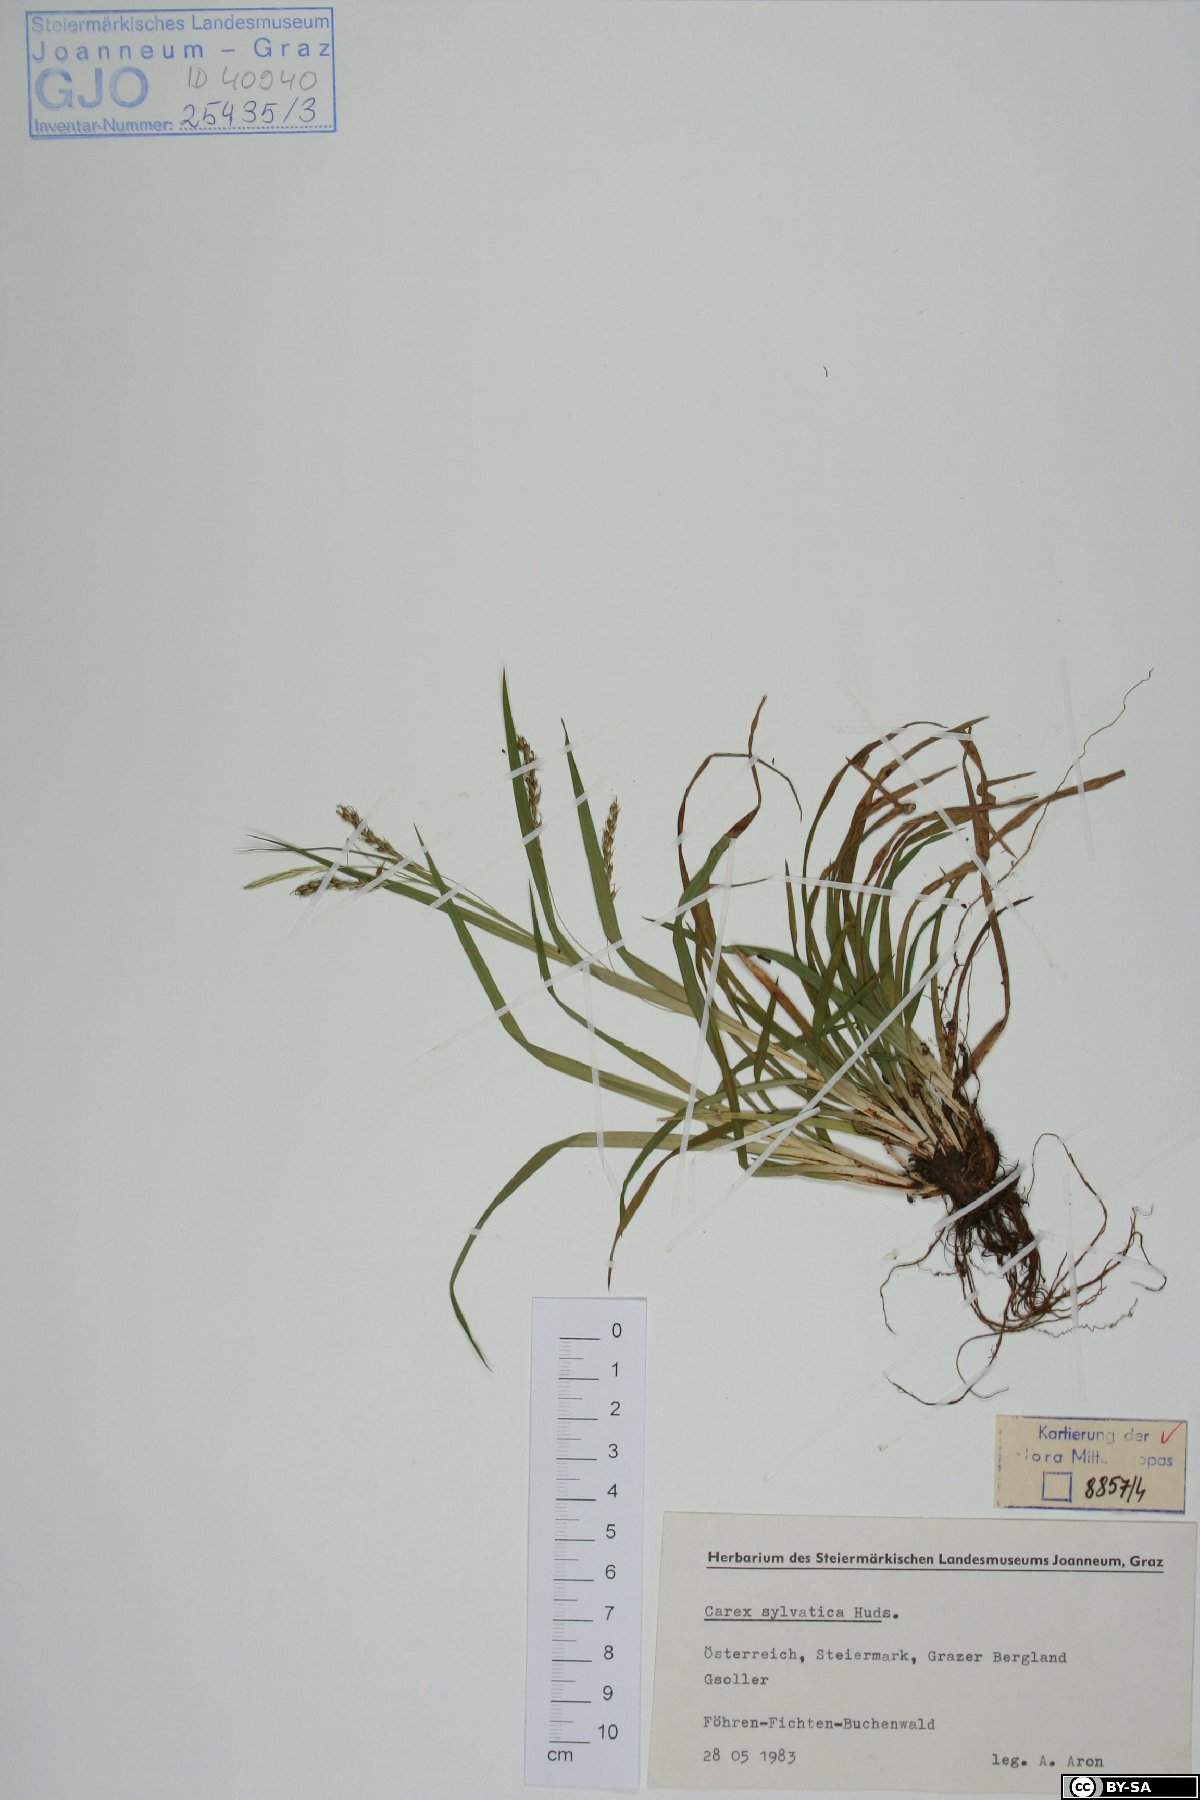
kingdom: Plantae
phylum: Tracheophyta
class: Liliopsida
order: Poales
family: Cyperaceae
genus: Carex
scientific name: Carex sylvatica
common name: Wood-sedge
